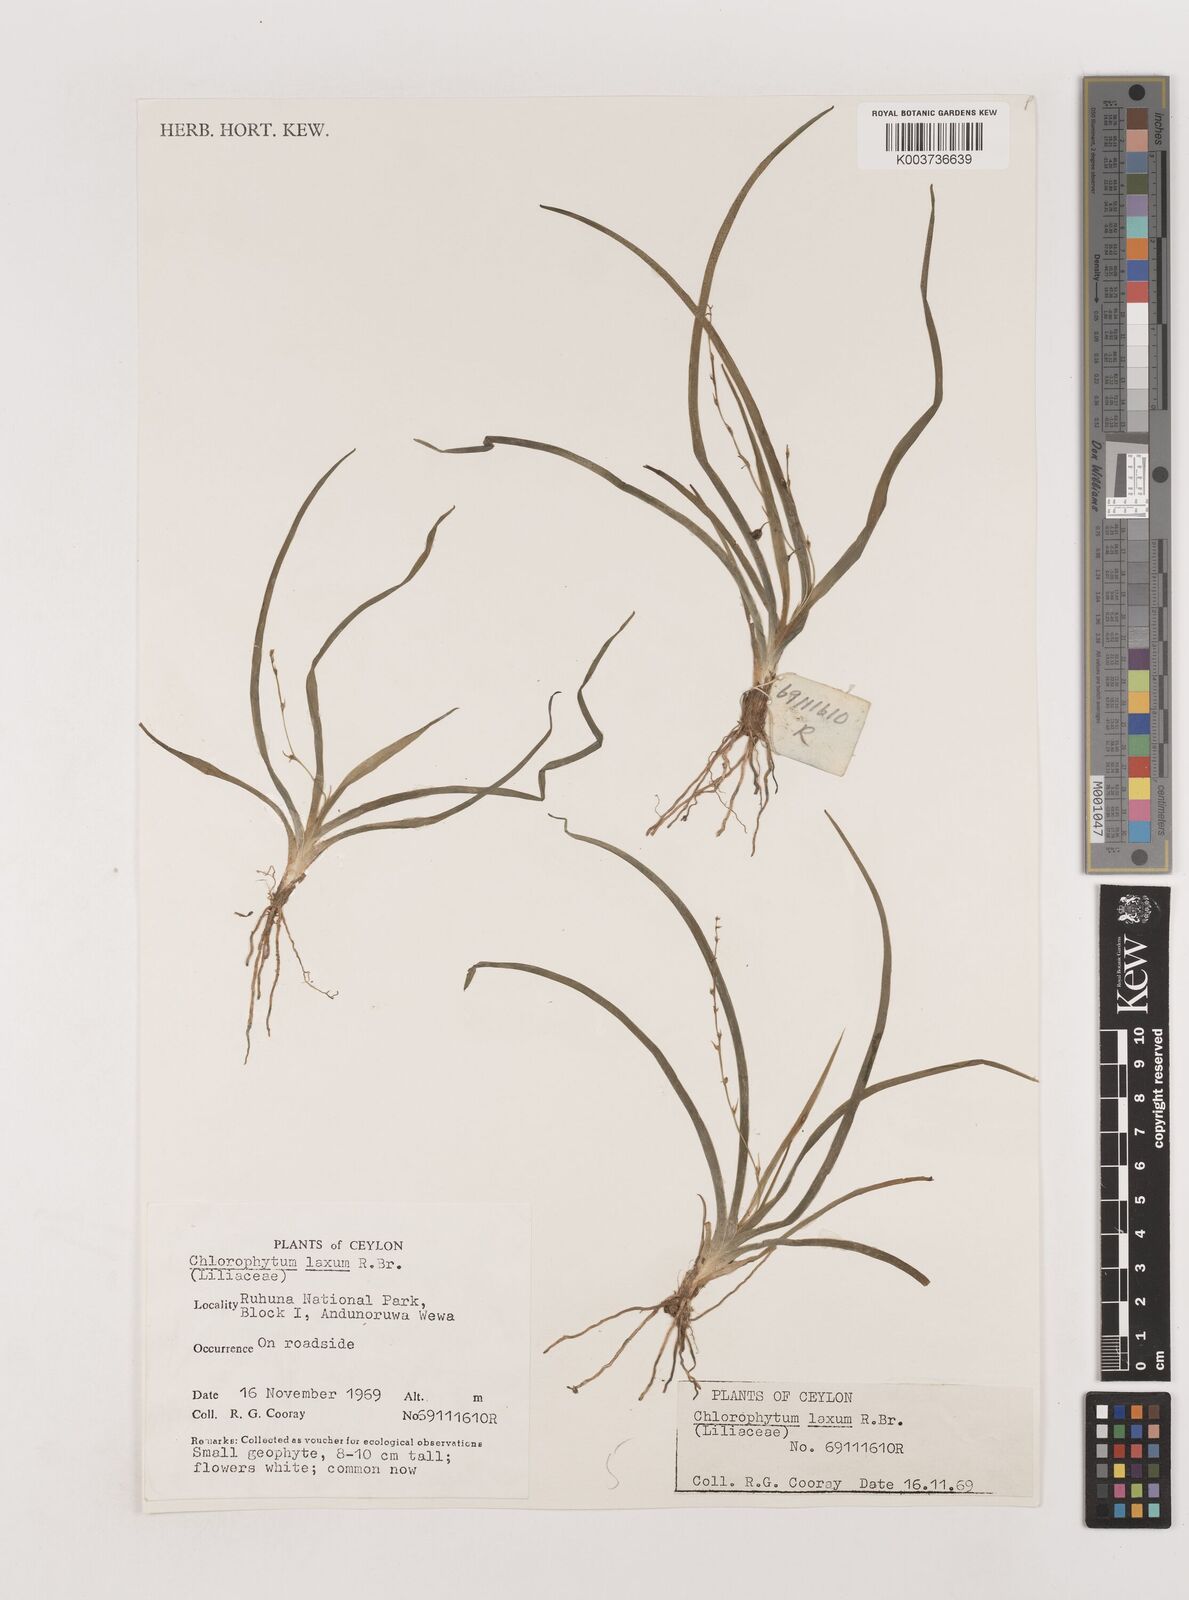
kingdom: Plantae
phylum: Tracheophyta
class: Liliopsida
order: Asparagales
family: Asparagaceae
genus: Chlorophytum
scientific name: Chlorophytum laxum
